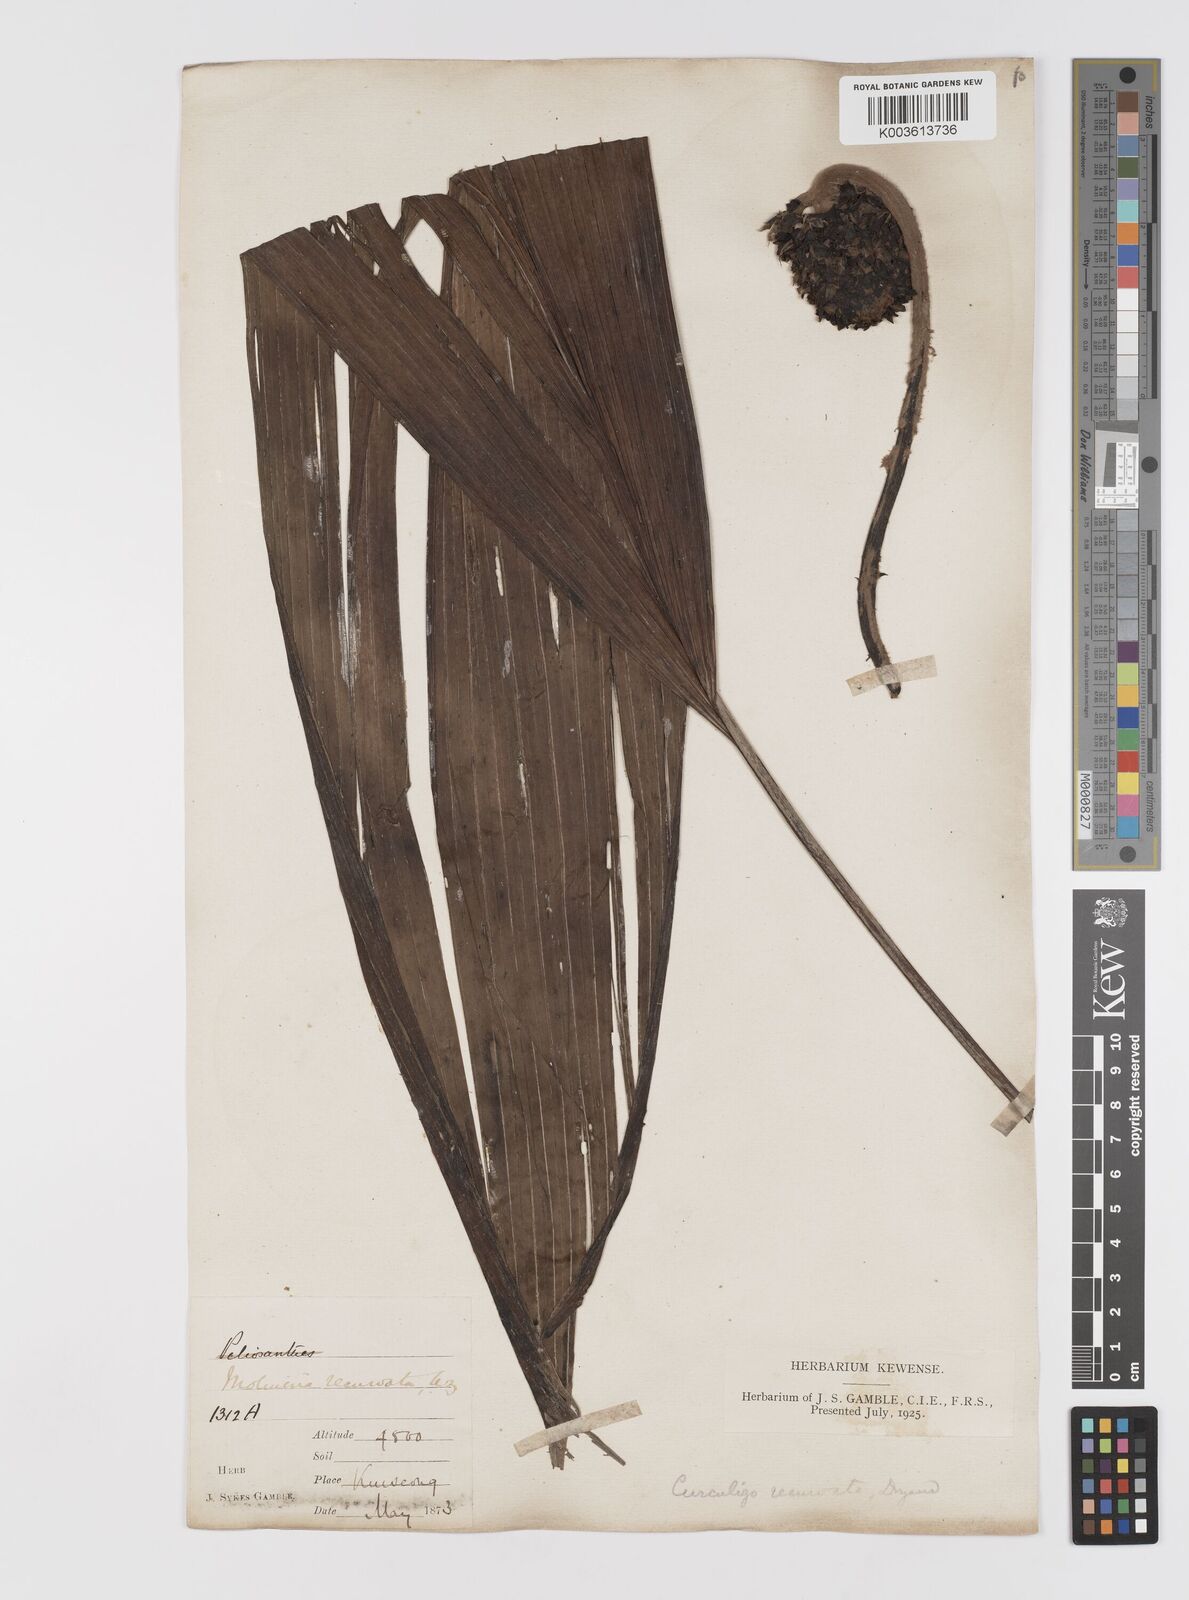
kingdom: Plantae
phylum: Tracheophyta
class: Liliopsida
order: Asparagales
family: Hypoxidaceae
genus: Curculigo
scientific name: Curculigo capitulata
